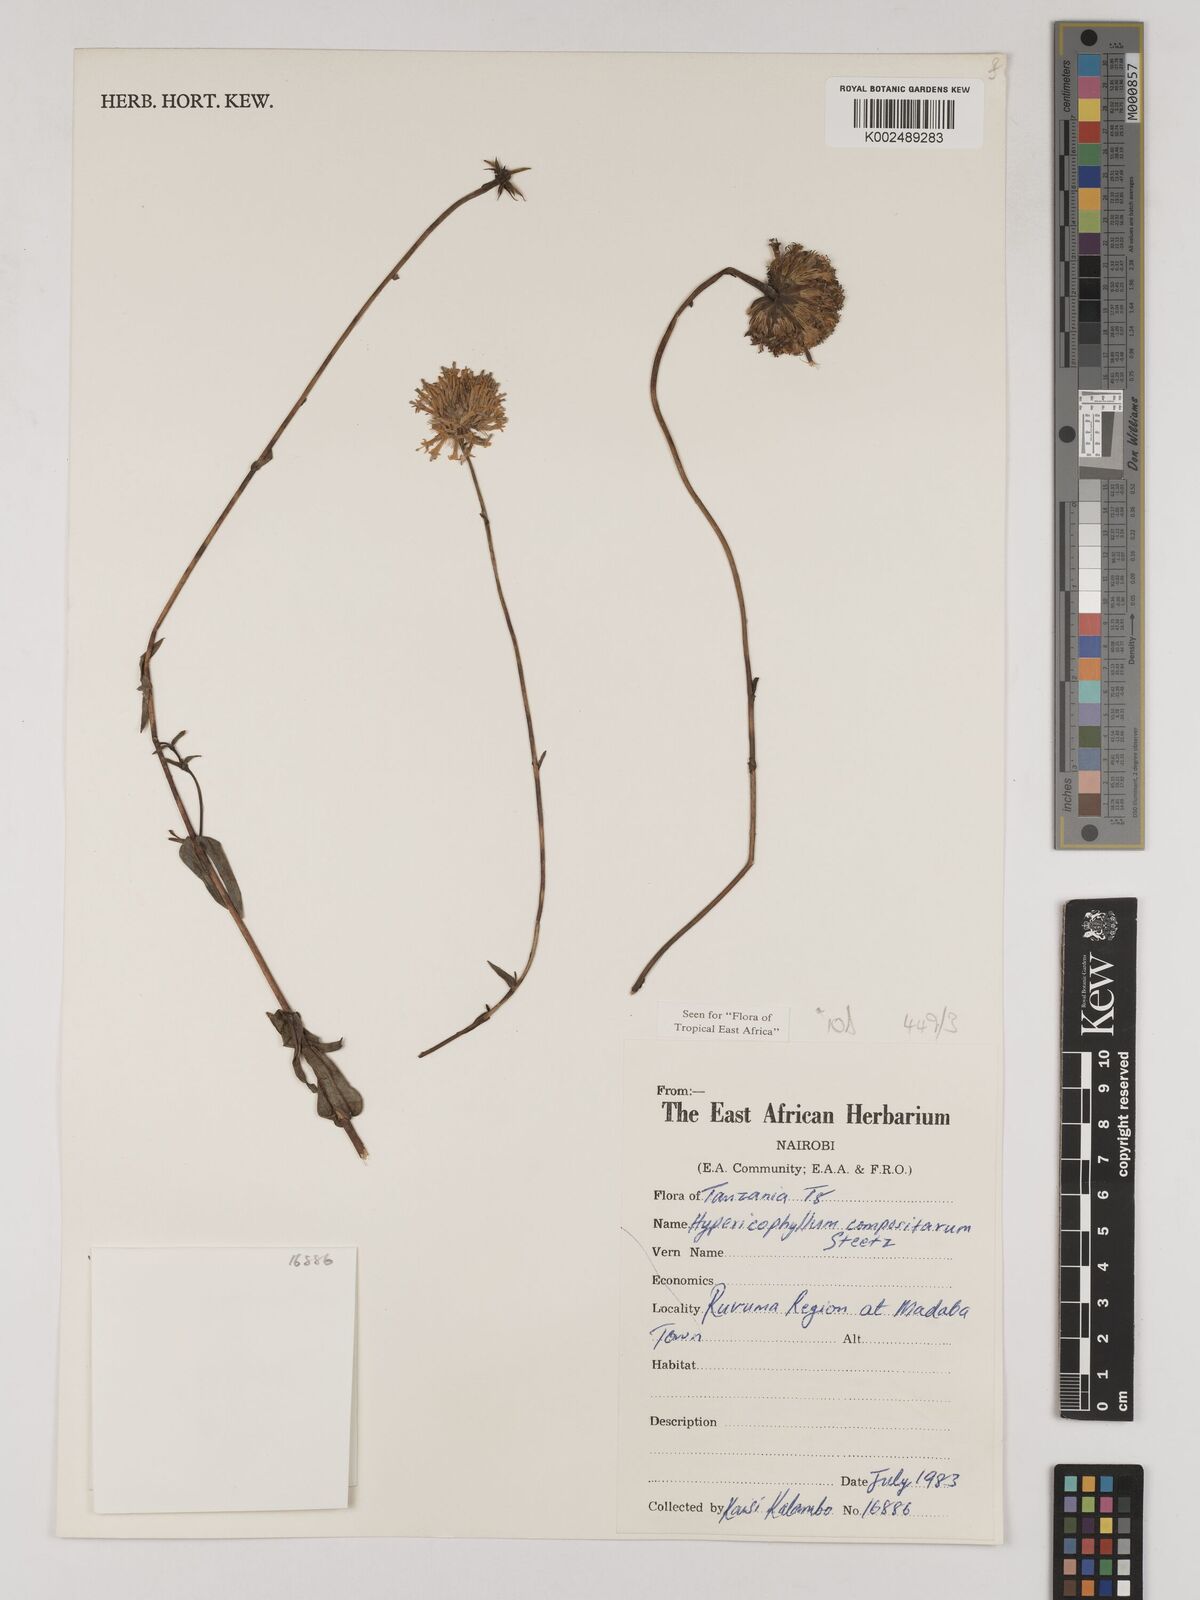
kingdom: Plantae
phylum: Tracheophyta
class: Magnoliopsida
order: Asterales
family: Asteraceae
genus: Hypericophyllum
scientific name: Hypericophyllum compositarum
